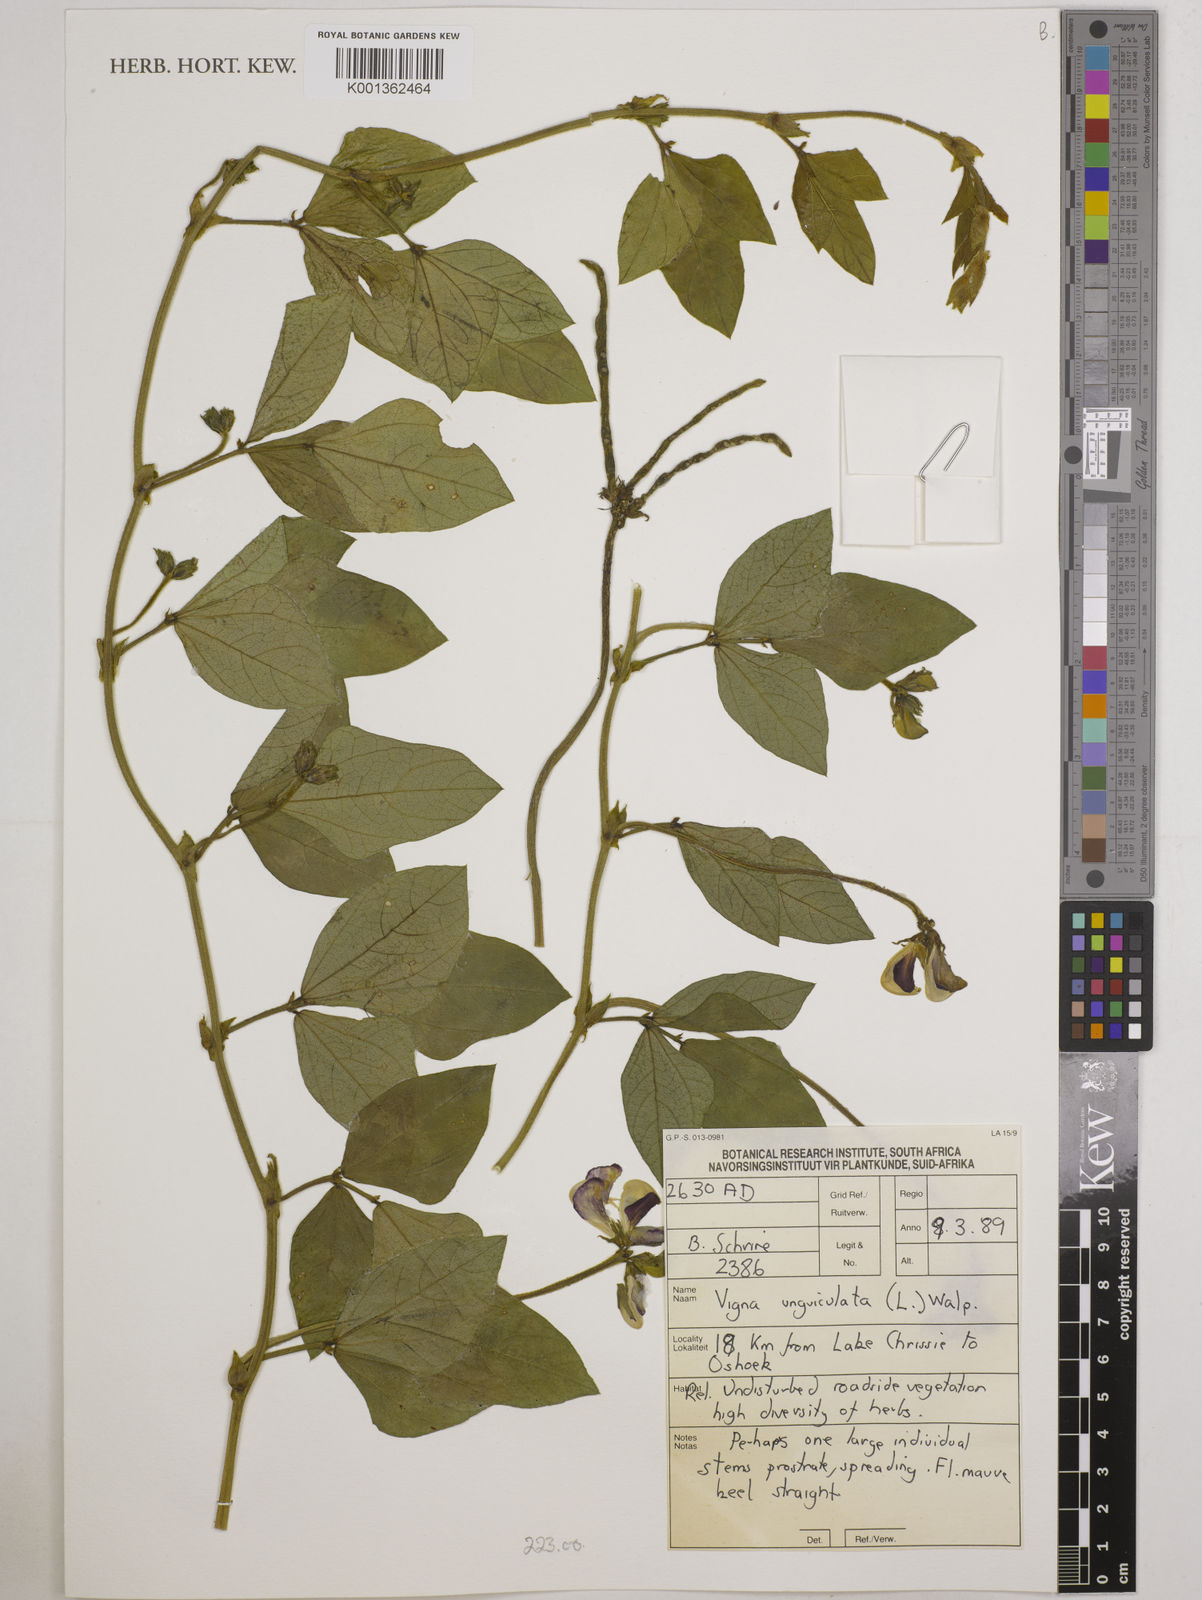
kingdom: Plantae
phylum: Tracheophyta
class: Magnoliopsida
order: Fabales
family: Fabaceae
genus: Vigna
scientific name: Vigna unguiculata
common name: Cowpea
